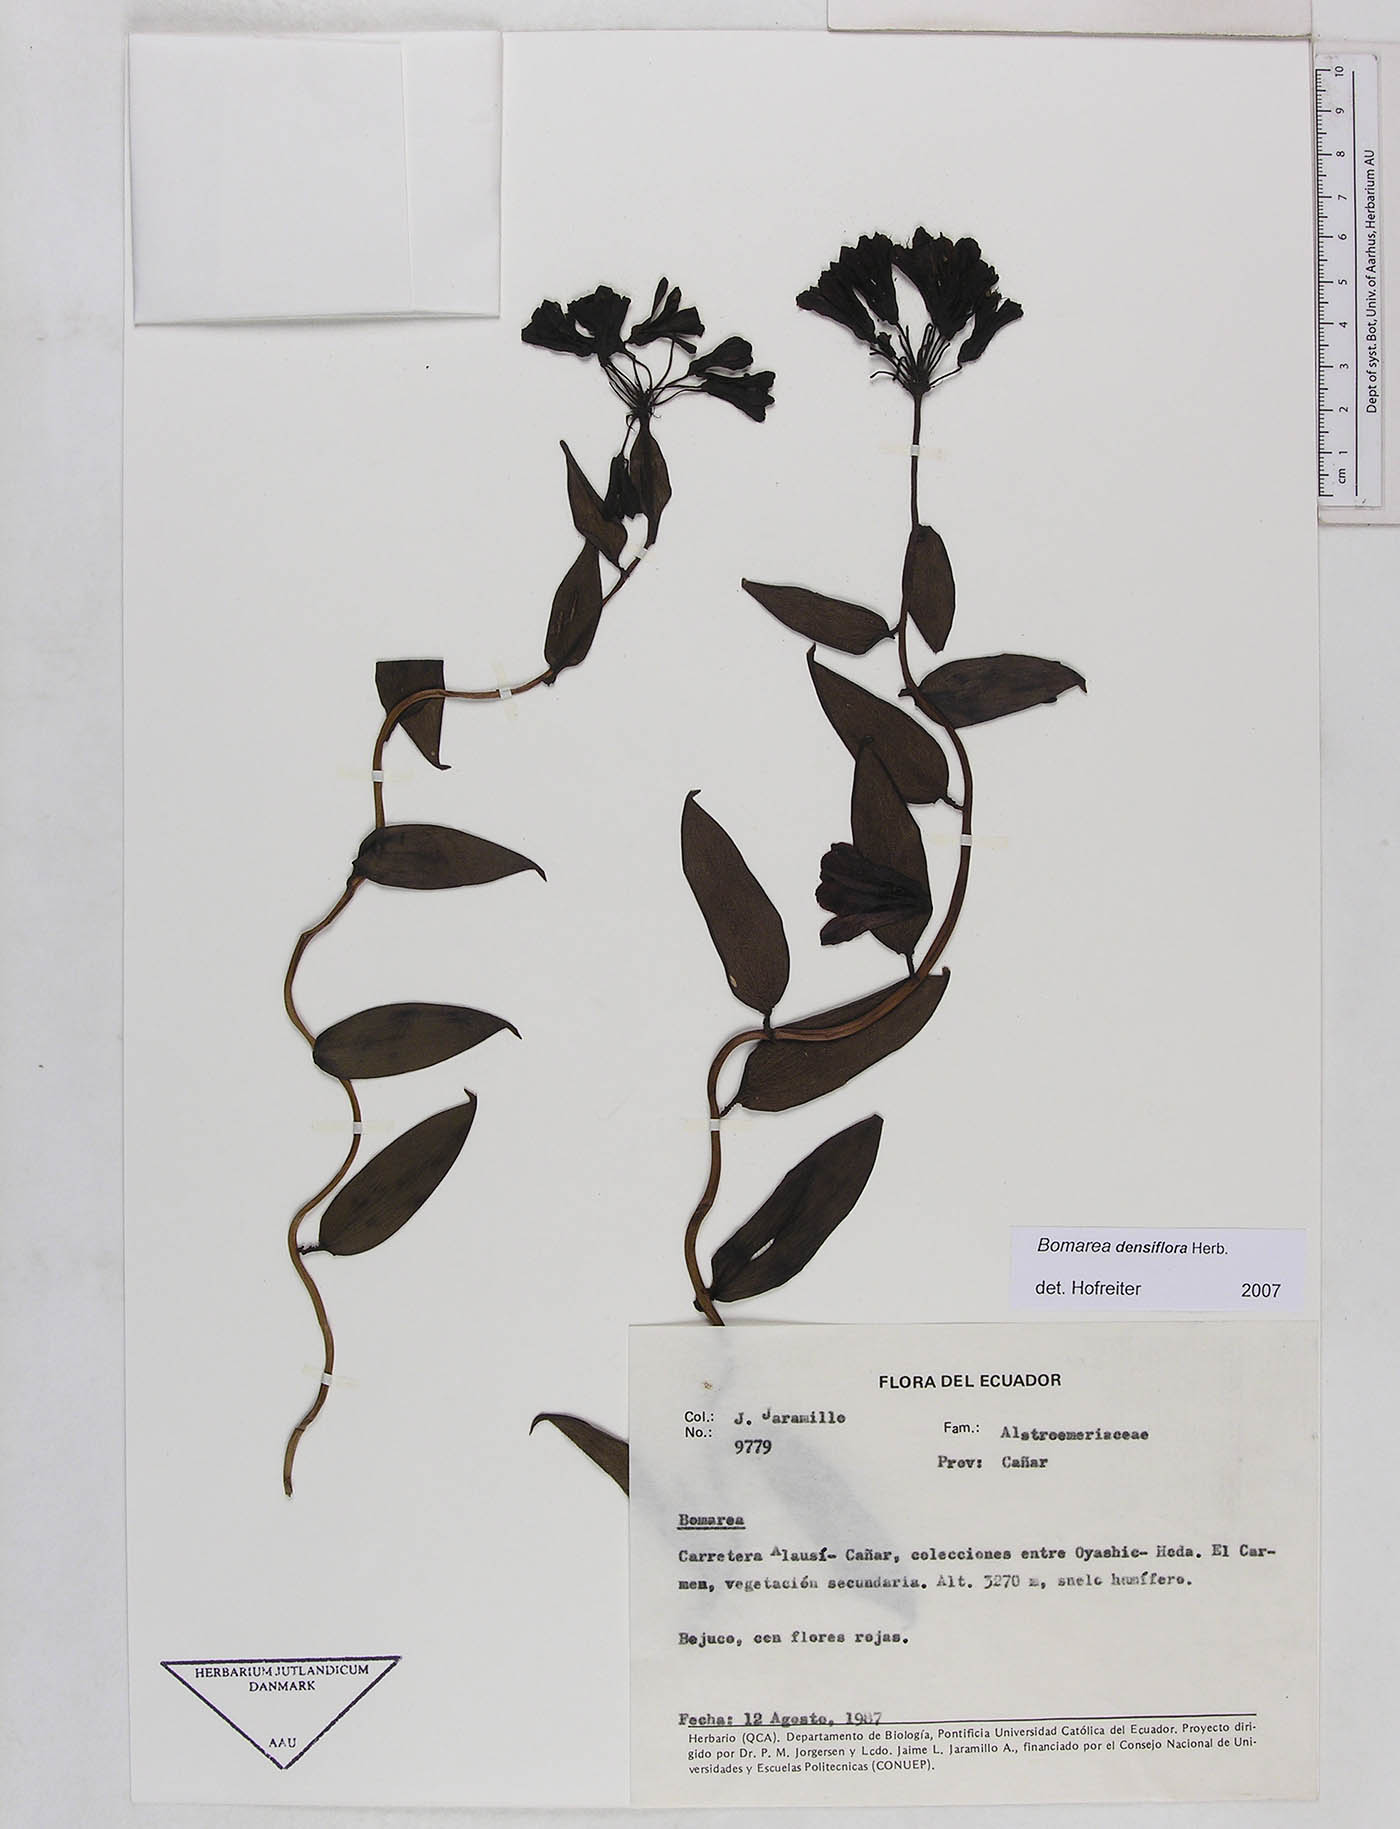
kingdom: Plantae
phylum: Tracheophyta
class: Liliopsida
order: Liliales
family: Alstroemeriaceae
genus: Bomarea
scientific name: Bomarea densiflora
